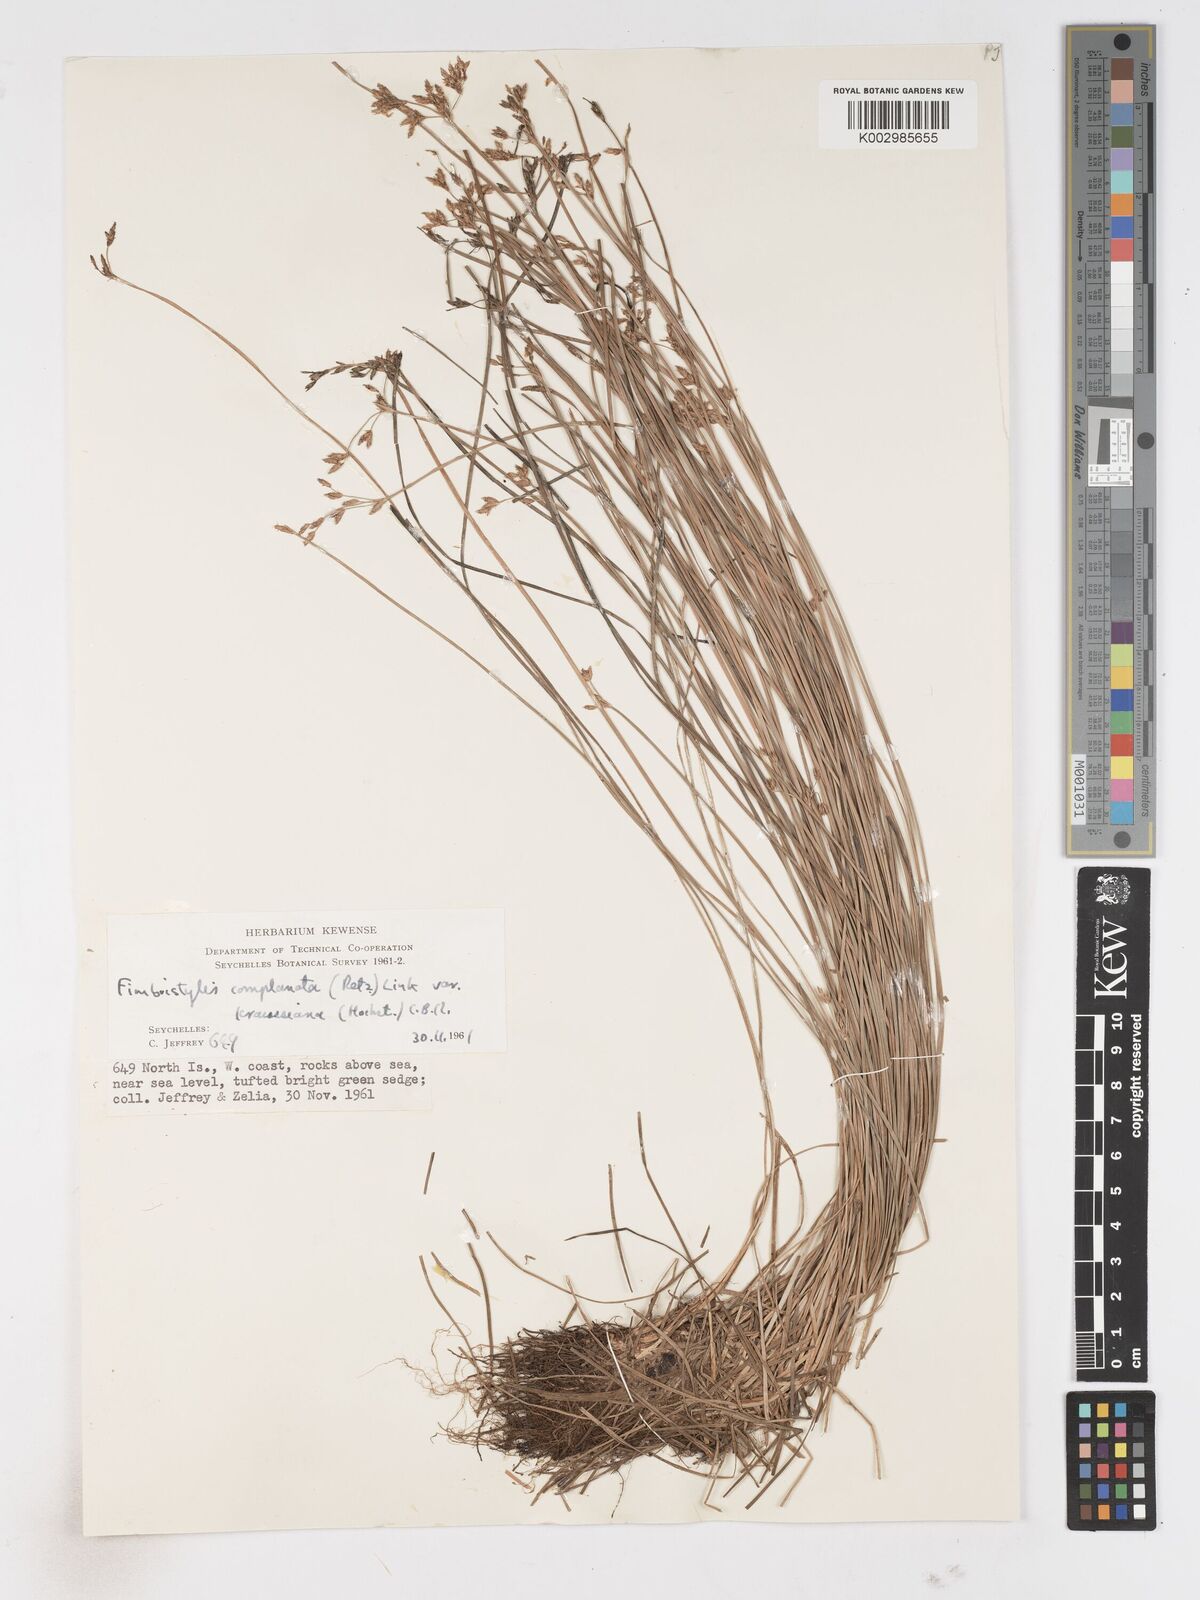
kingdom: Plantae
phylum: Tracheophyta
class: Liliopsida
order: Poales
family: Cyperaceae
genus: Fimbristylis
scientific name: Fimbristylis complanata
